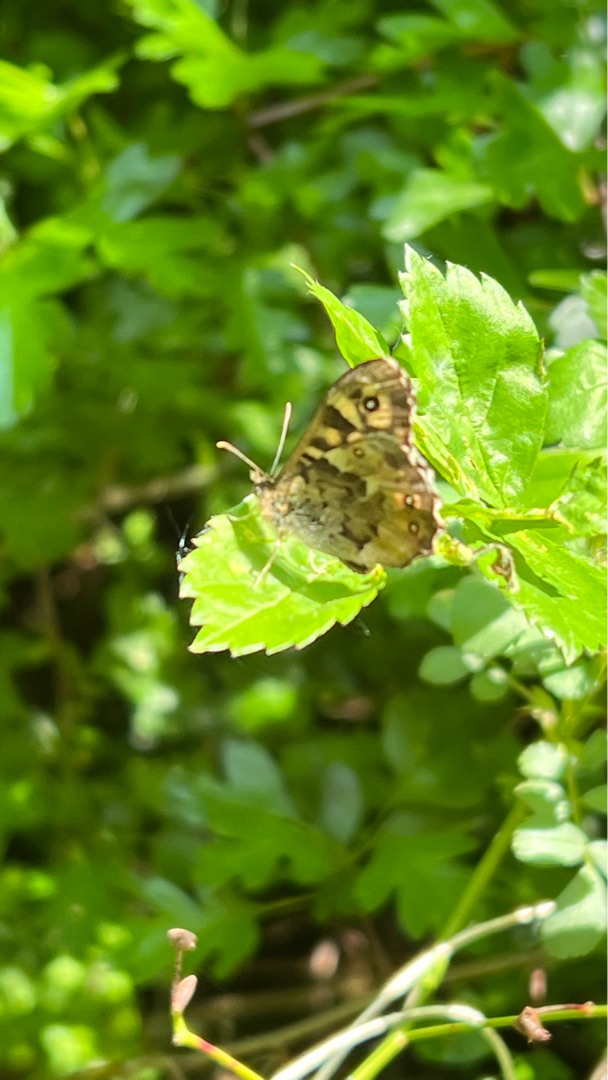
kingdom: Animalia
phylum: Arthropoda
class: Insecta
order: Lepidoptera
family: Nymphalidae
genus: Pararge
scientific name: Pararge aegeria
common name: Skovrandøje
